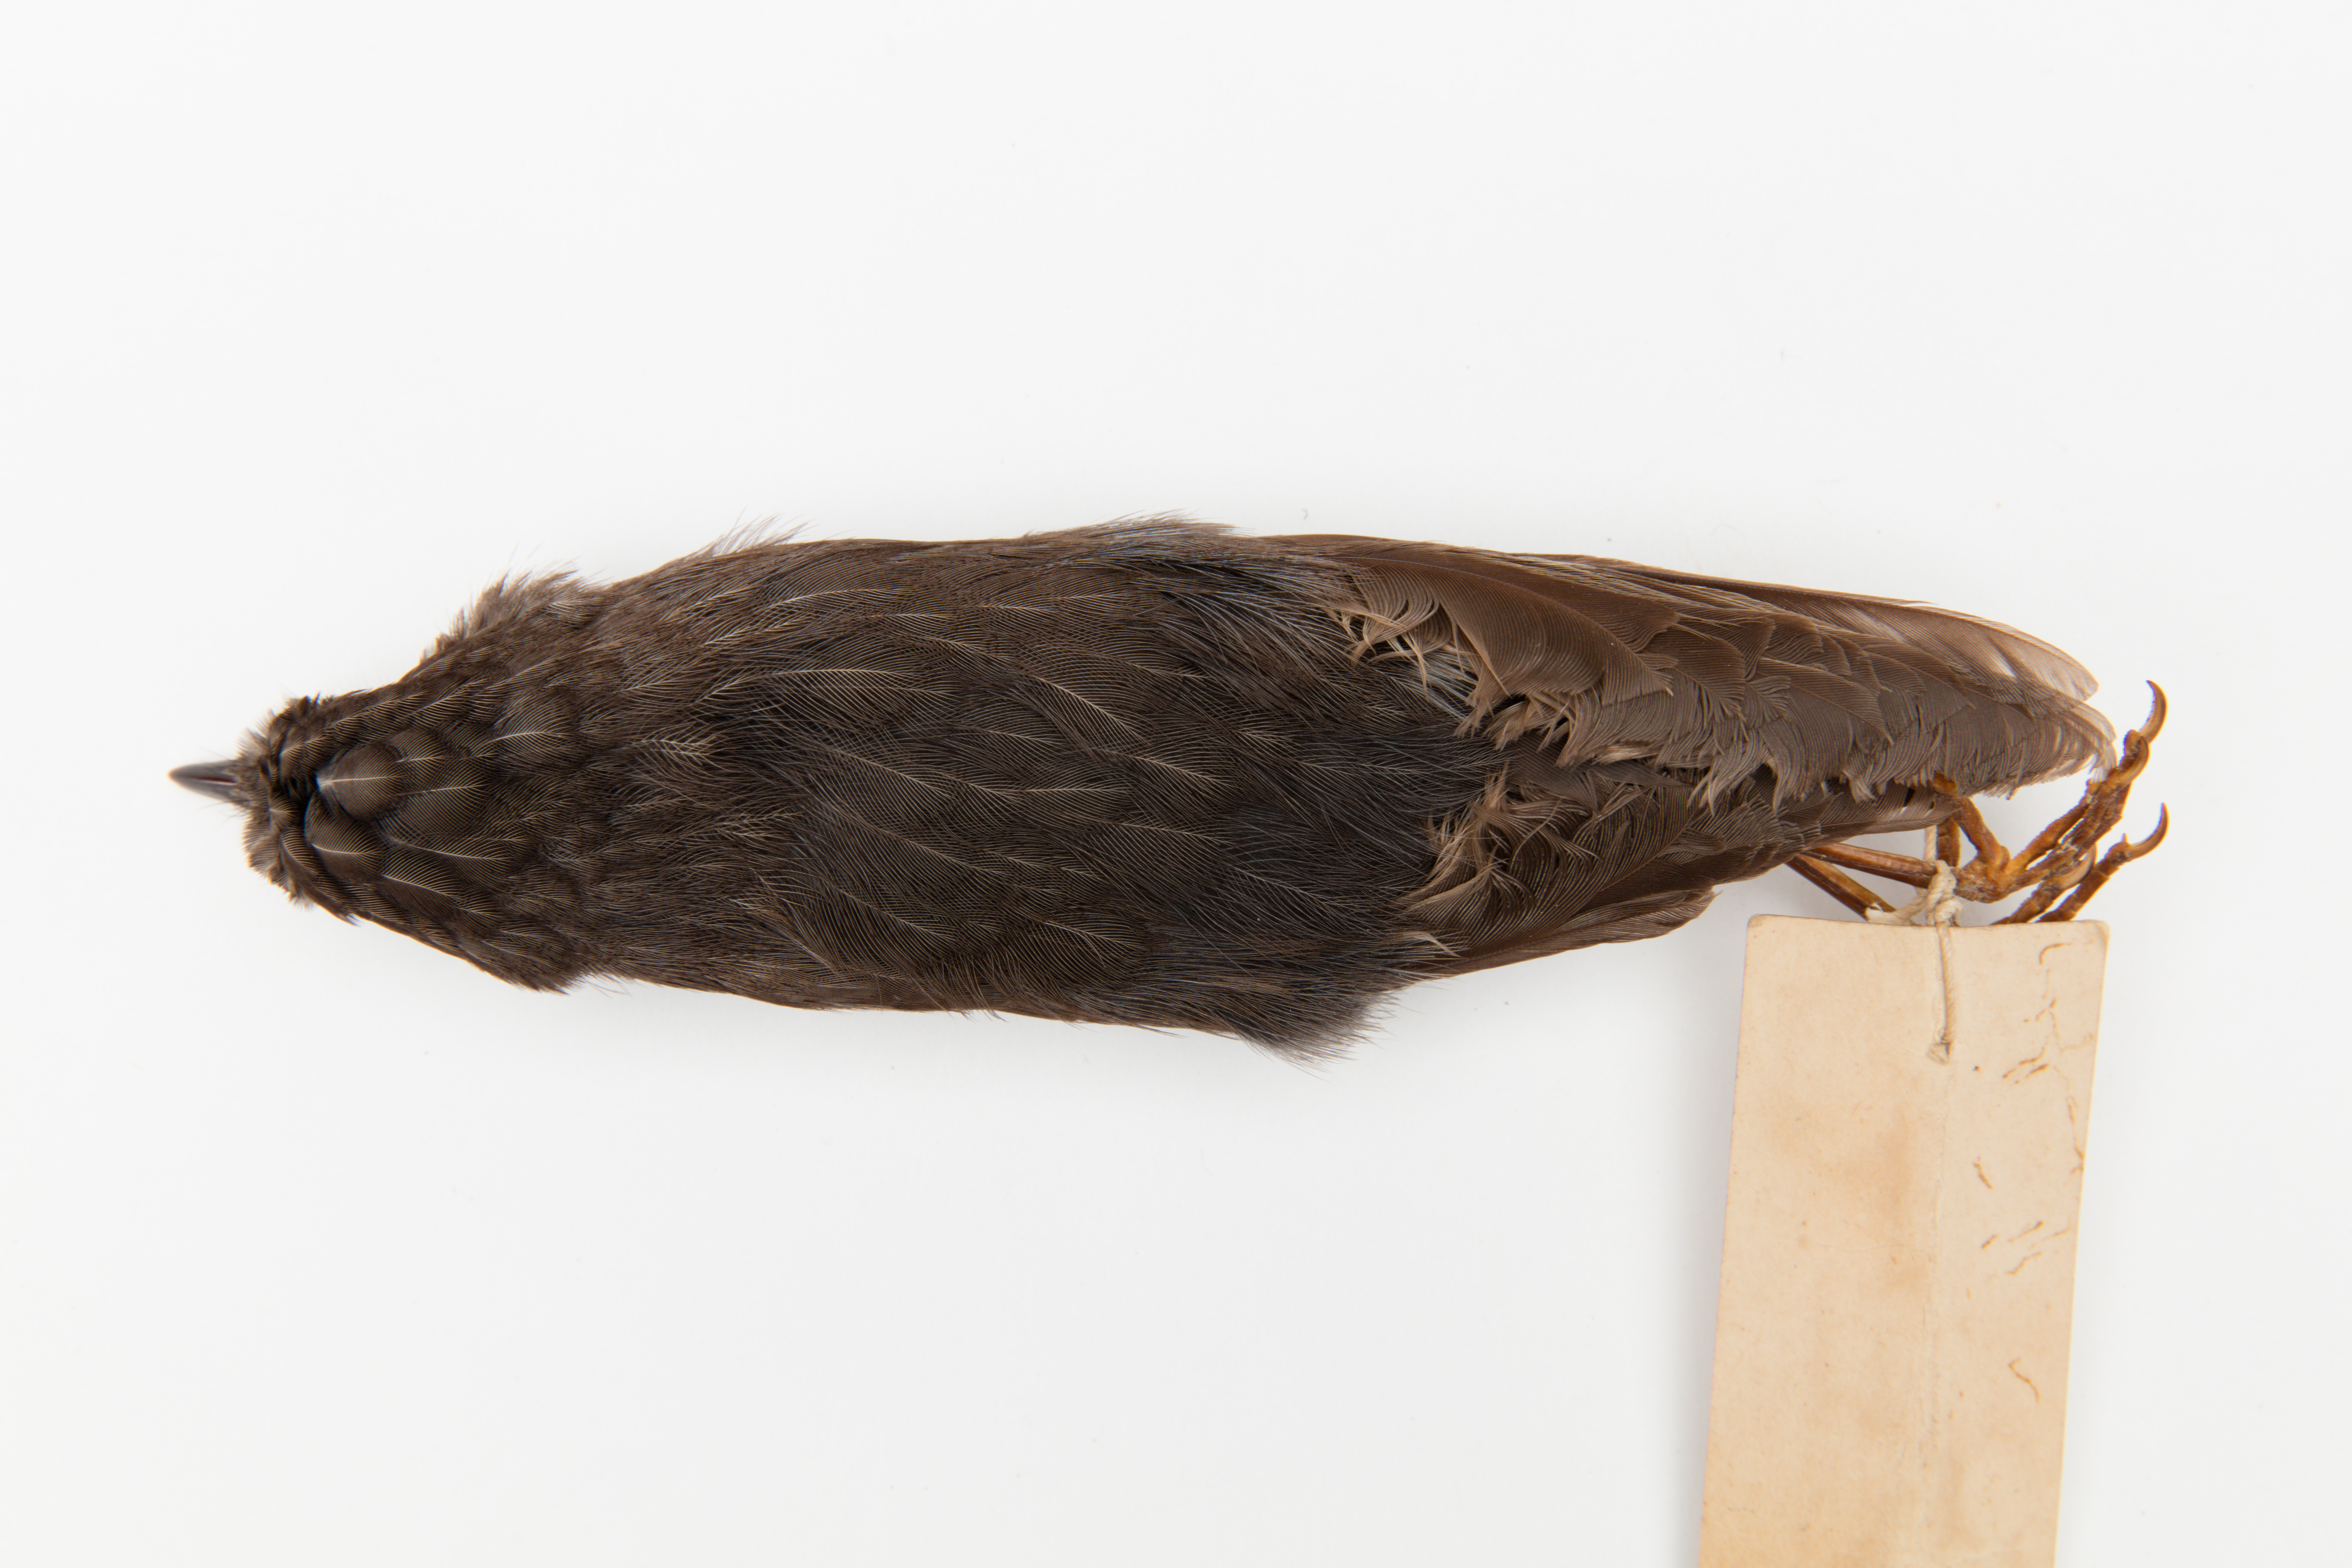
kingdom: Animalia
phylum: Chordata
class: Aves
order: Passeriformes
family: Petroicidae
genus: Petroica
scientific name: Petroica australis
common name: New zealand robin
